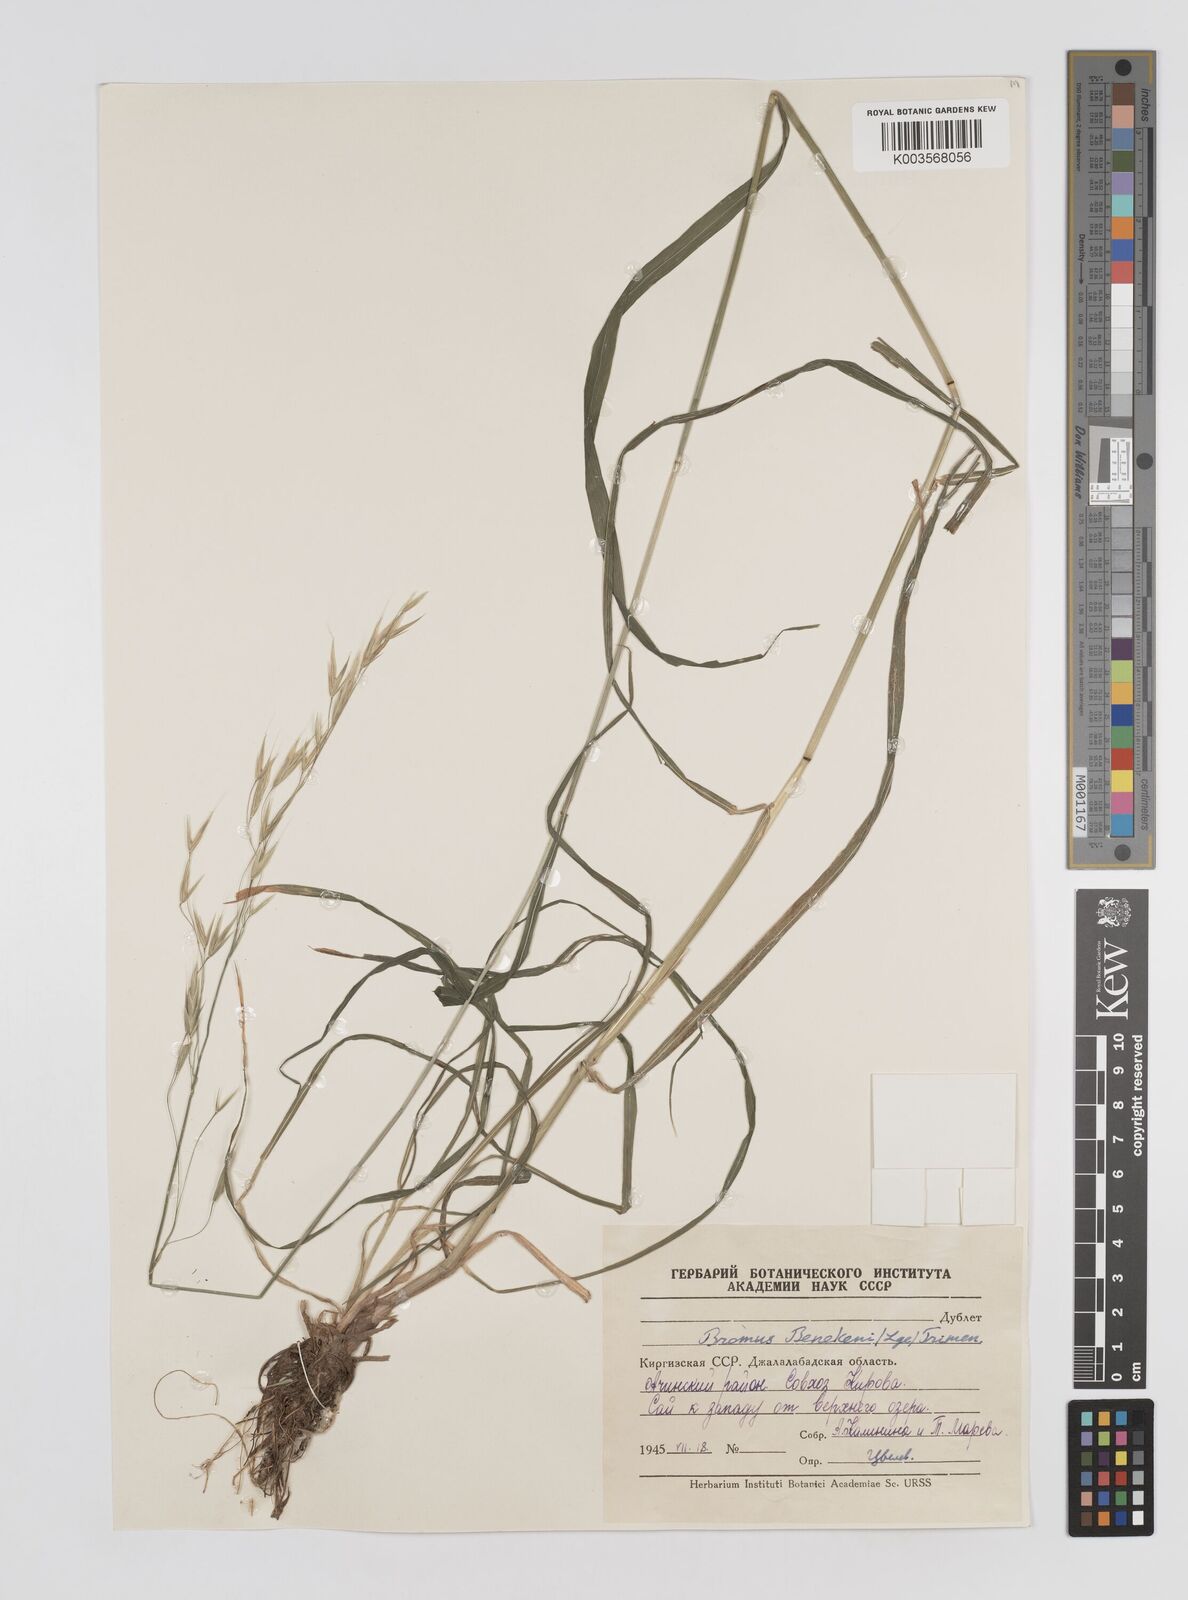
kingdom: Plantae
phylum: Tracheophyta
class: Liliopsida
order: Poales
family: Poaceae
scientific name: Poaceae
